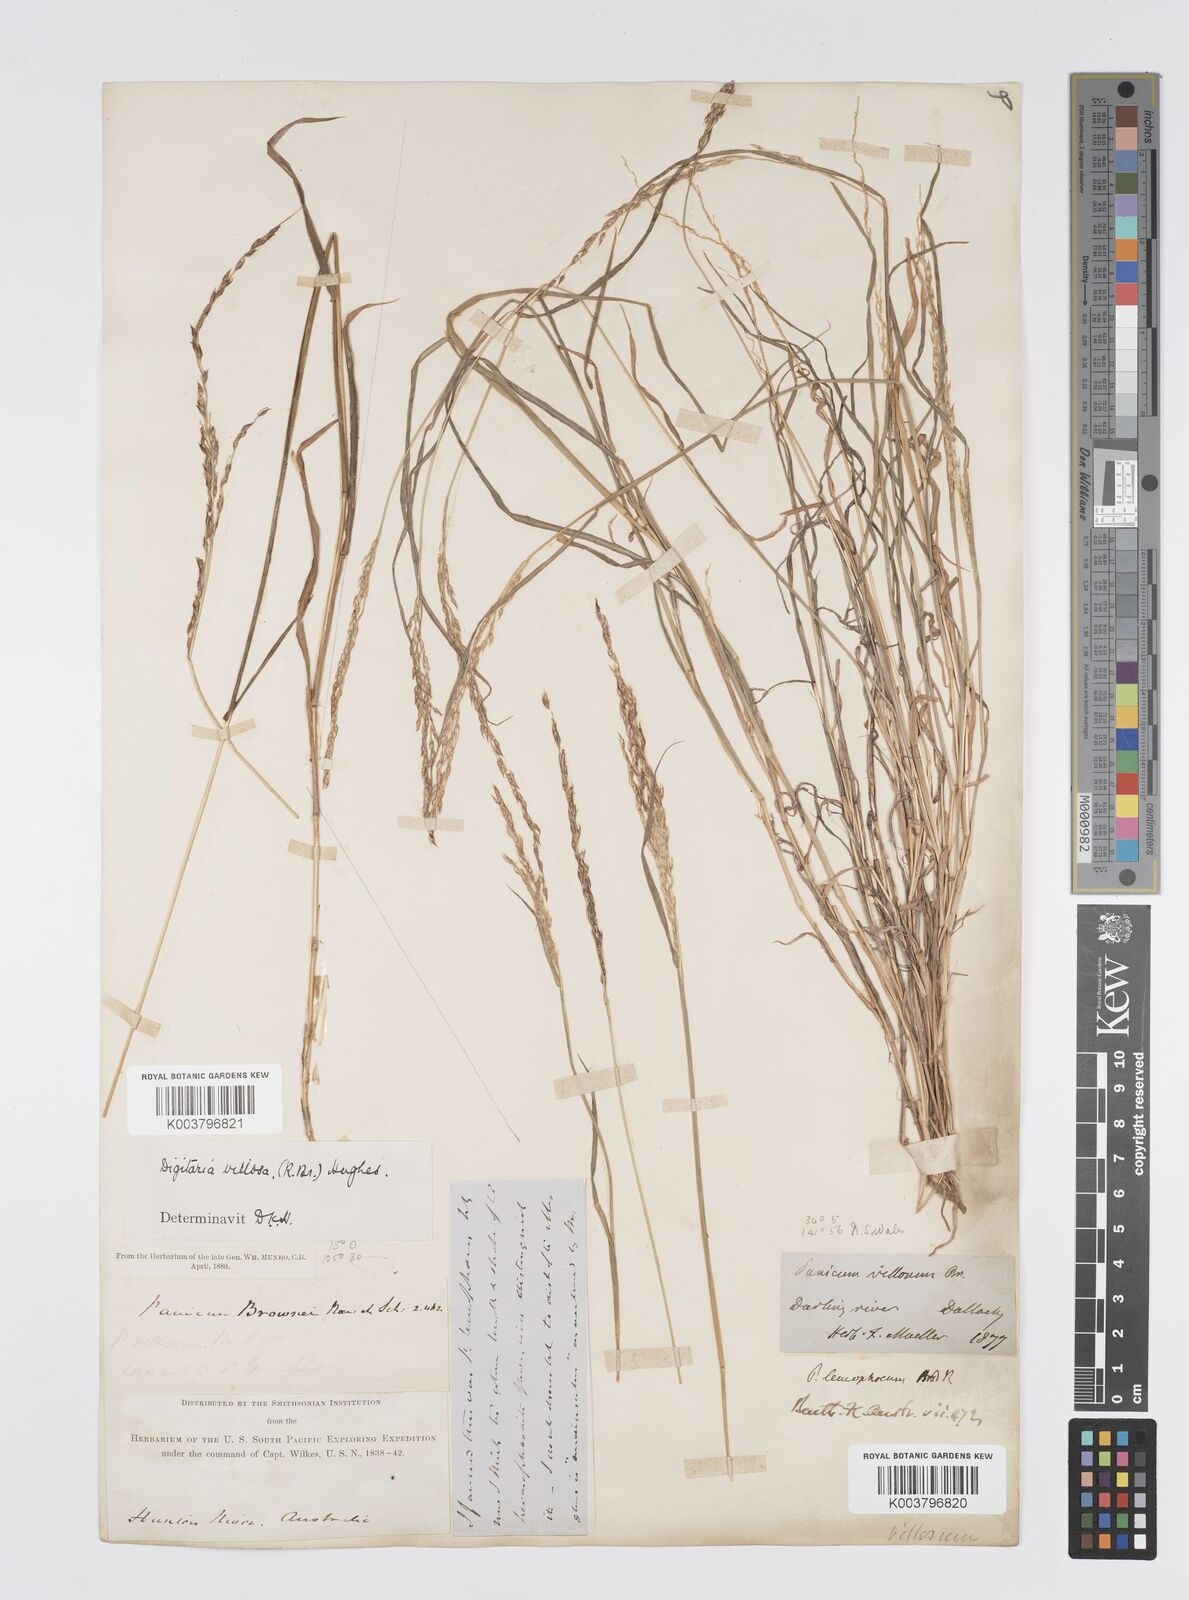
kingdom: Plantae
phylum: Tracheophyta
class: Liliopsida
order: Poales
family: Poaceae
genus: Digitaria
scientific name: Digitaria brownii
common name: Cotton grass
